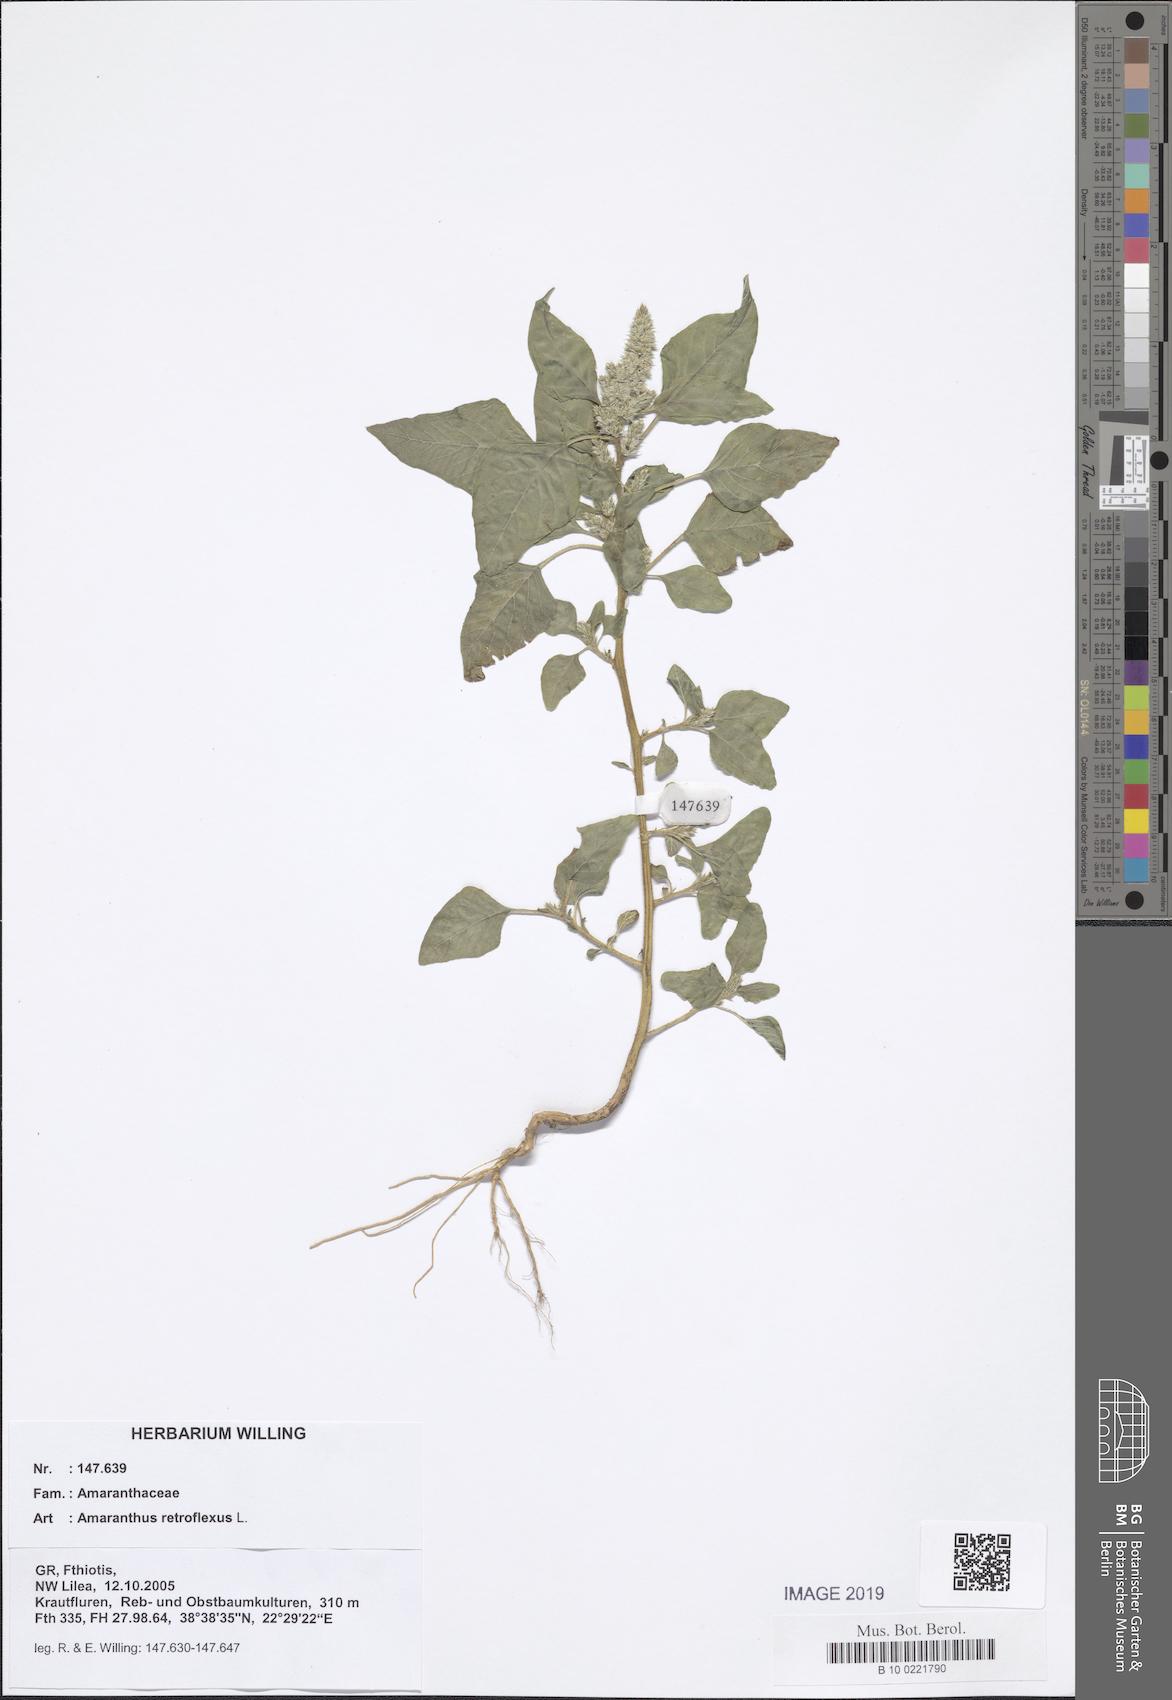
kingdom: Plantae
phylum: Tracheophyta
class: Magnoliopsida
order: Caryophyllales
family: Amaranthaceae
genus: Amaranthus
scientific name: Amaranthus retroflexus
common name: Redroot amaranth
